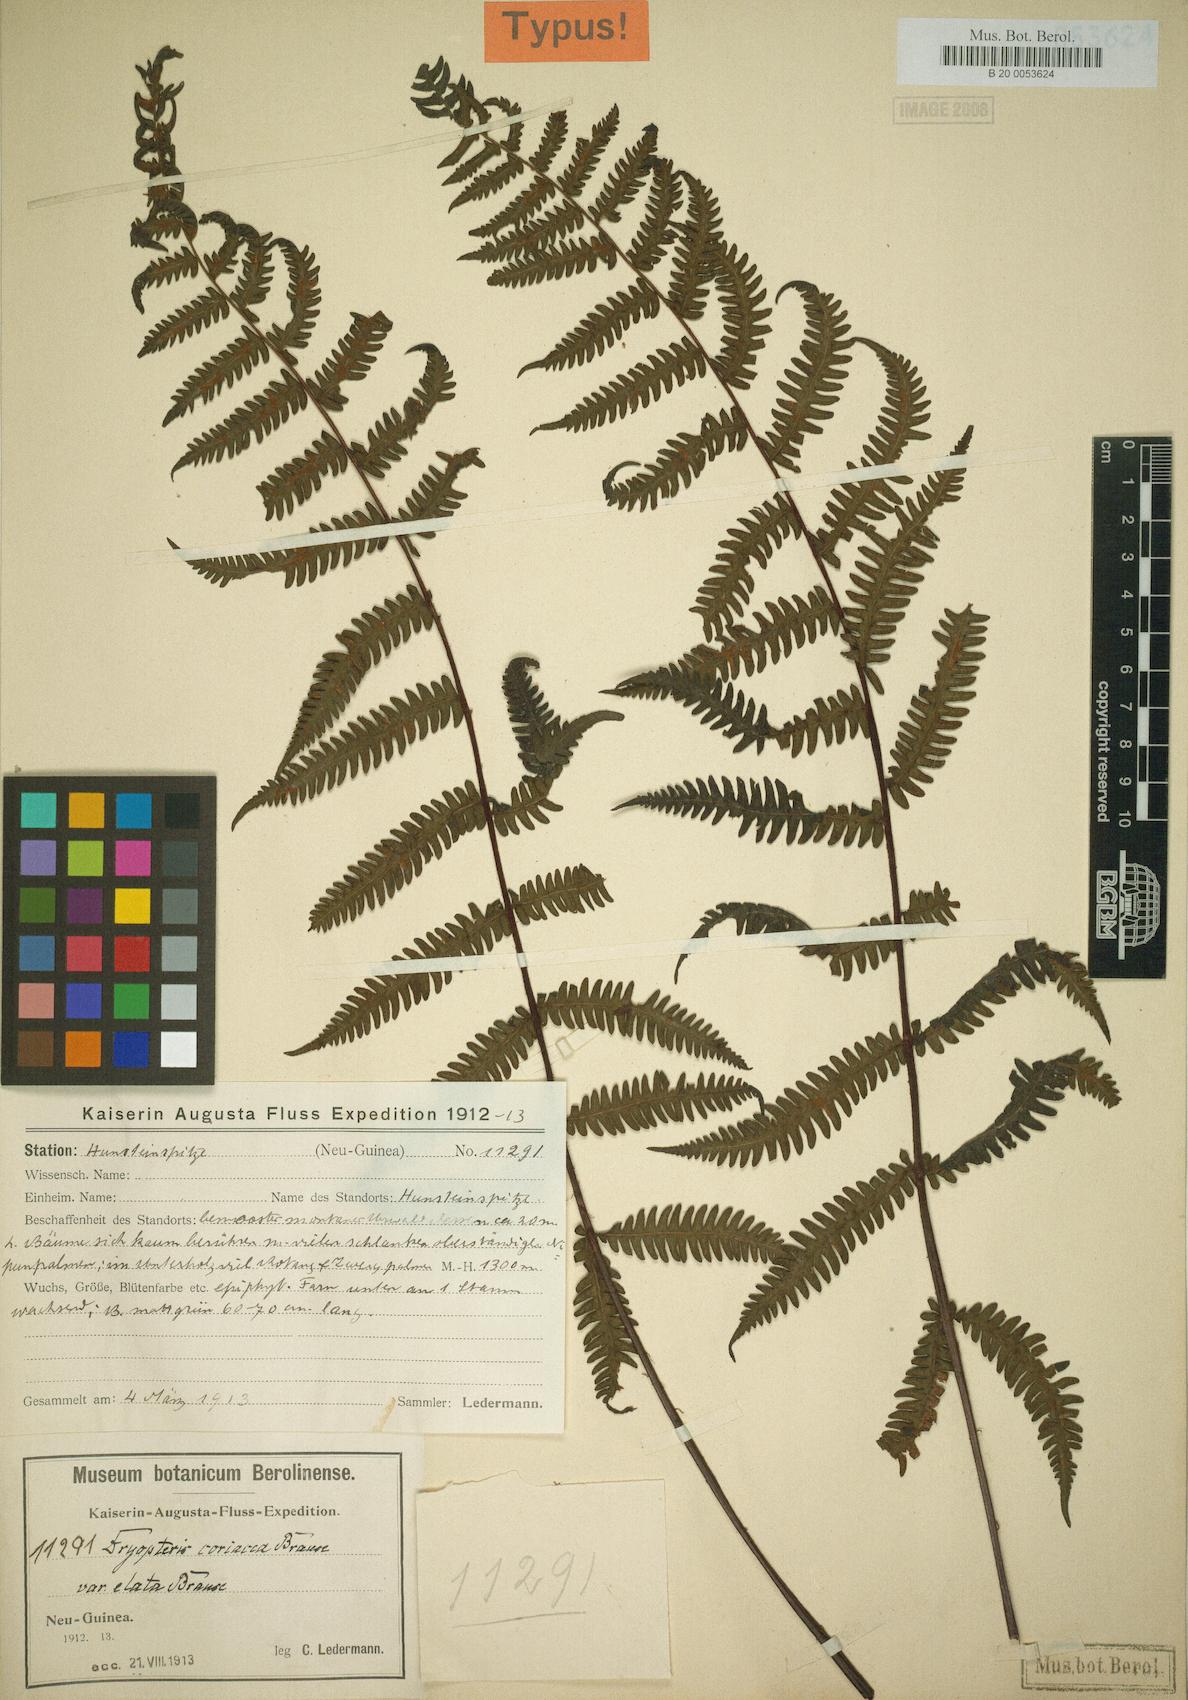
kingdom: Plantae
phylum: Tracheophyta
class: Polypodiopsida
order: Polypodiales
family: Thelypteridaceae
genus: Coryphopteris
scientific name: Coryphopteris coriacea
